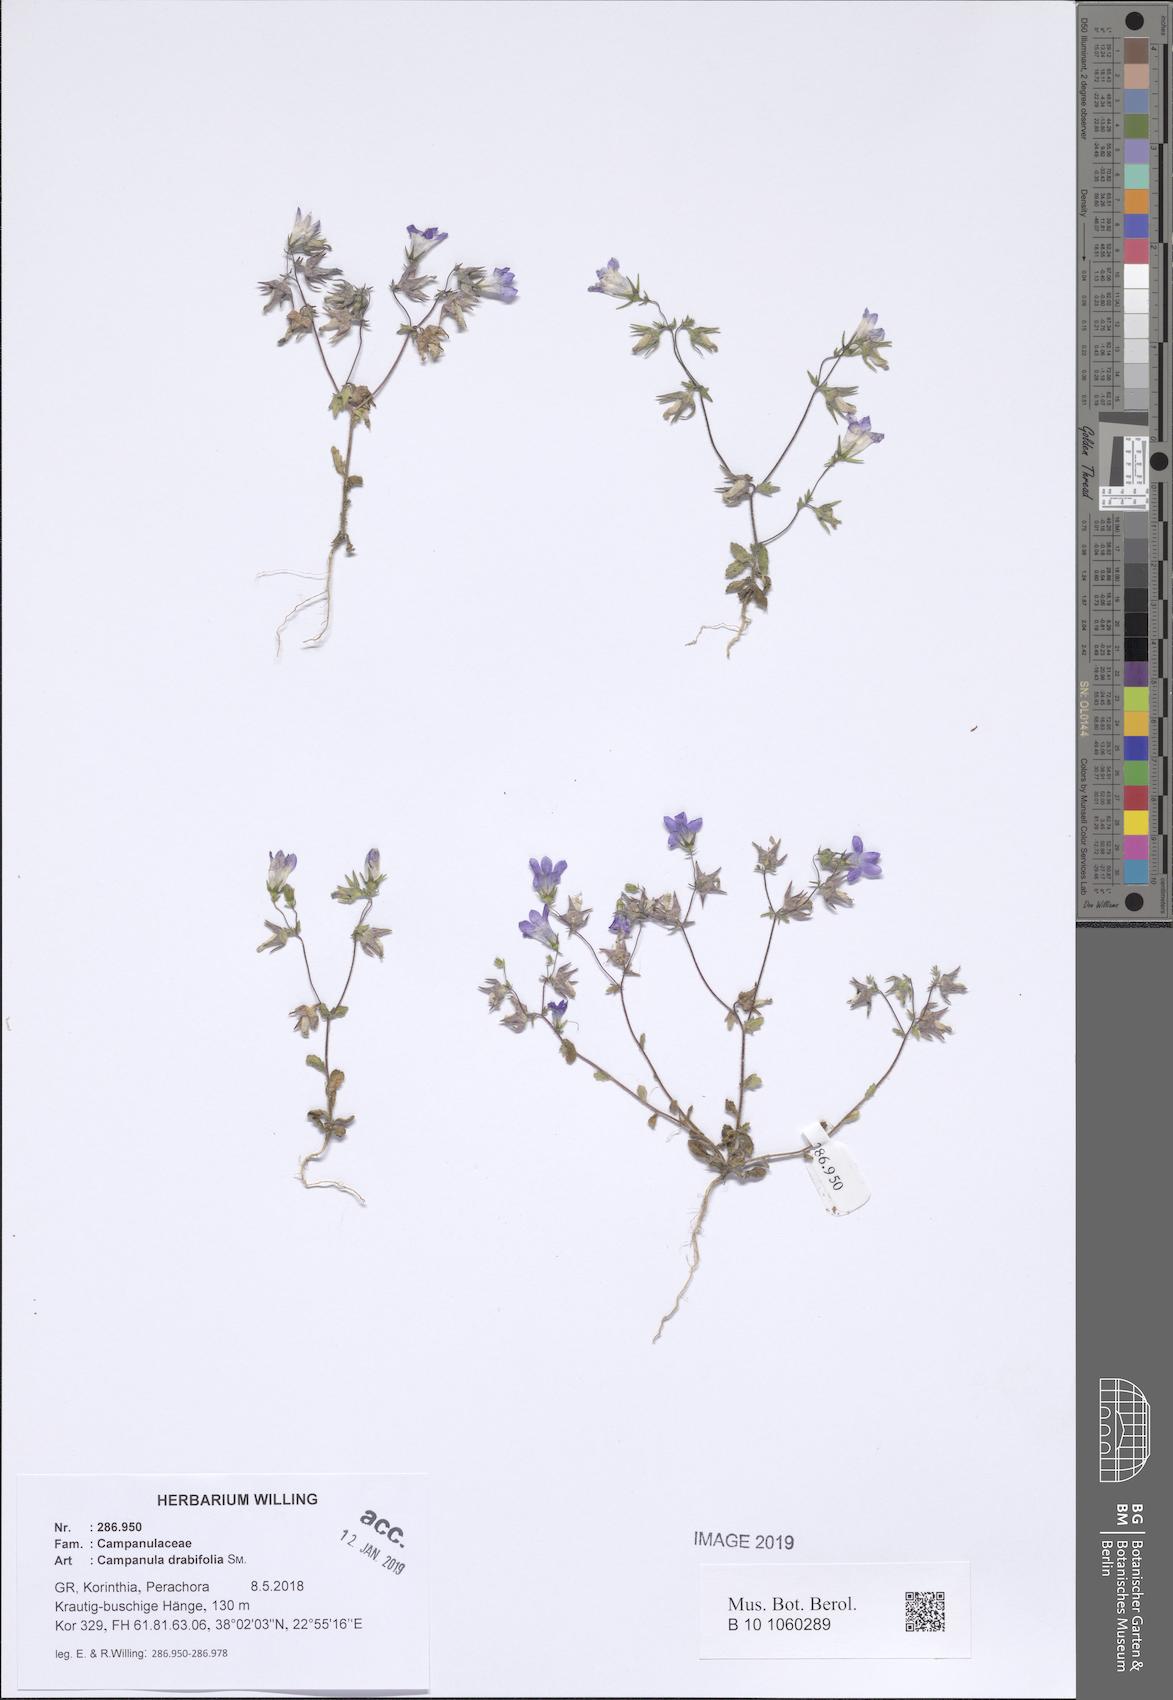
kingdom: Plantae
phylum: Tracheophyta
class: Magnoliopsida
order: Asterales
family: Campanulaceae
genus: Campanula
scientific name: Campanula drabifolia
